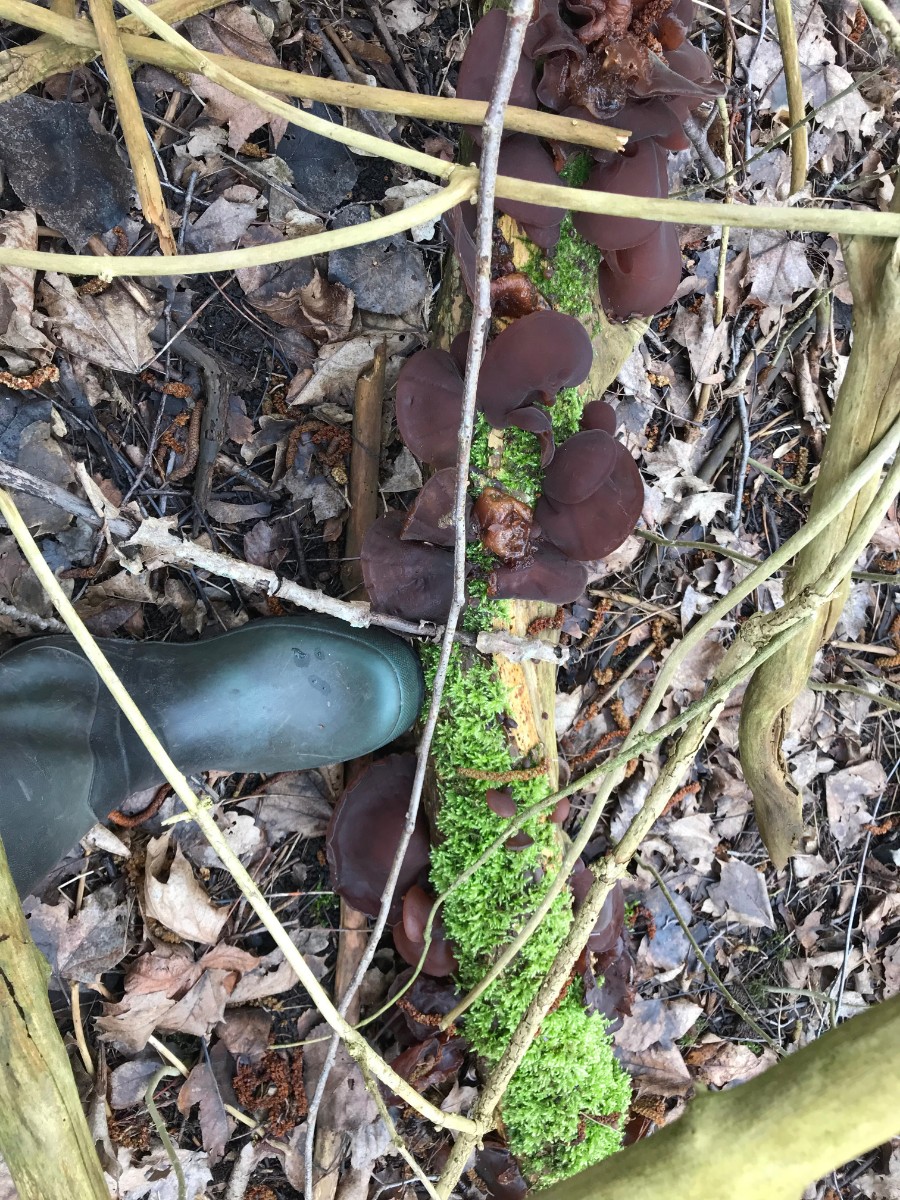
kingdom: Fungi
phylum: Basidiomycota
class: Agaricomycetes
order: Auriculariales
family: Auriculariaceae
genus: Auricularia
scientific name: Auricularia auricula-judae
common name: almindelig judasøre
